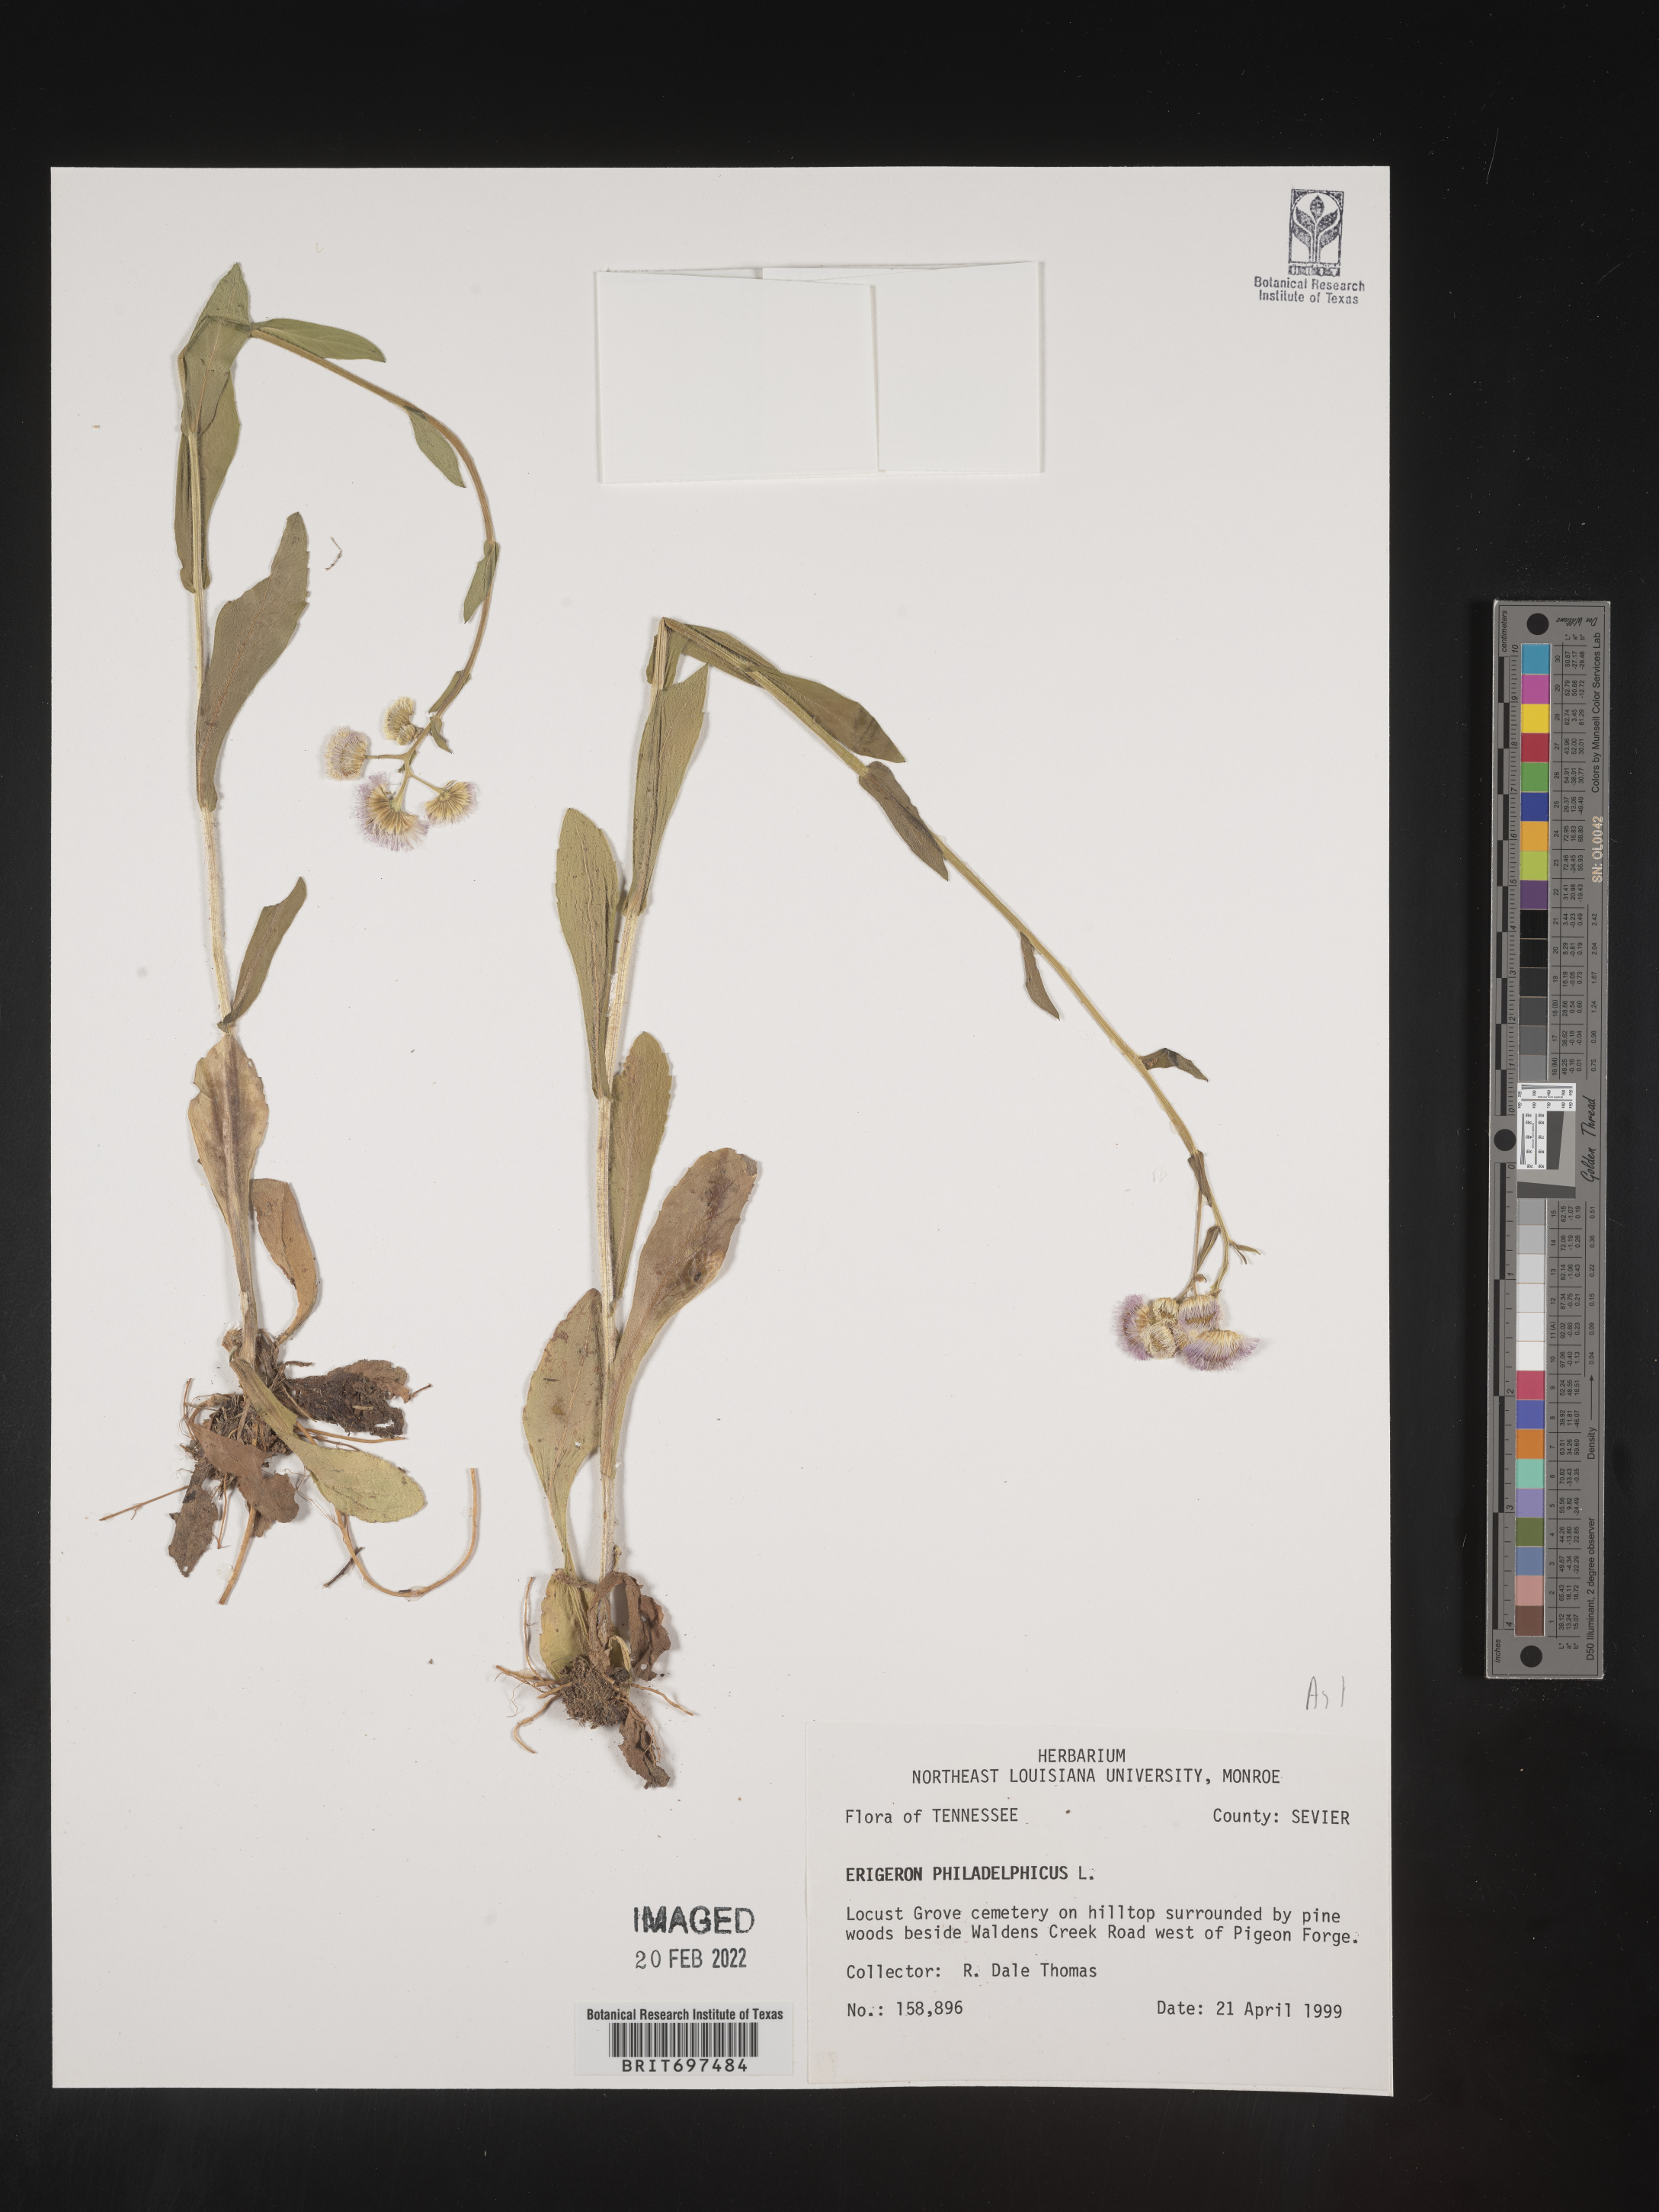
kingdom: Plantae
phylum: Tracheophyta
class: Magnoliopsida
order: Asterales
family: Asteraceae
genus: Erigeron
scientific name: Erigeron philadelphicus
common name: Robin's-plantain
